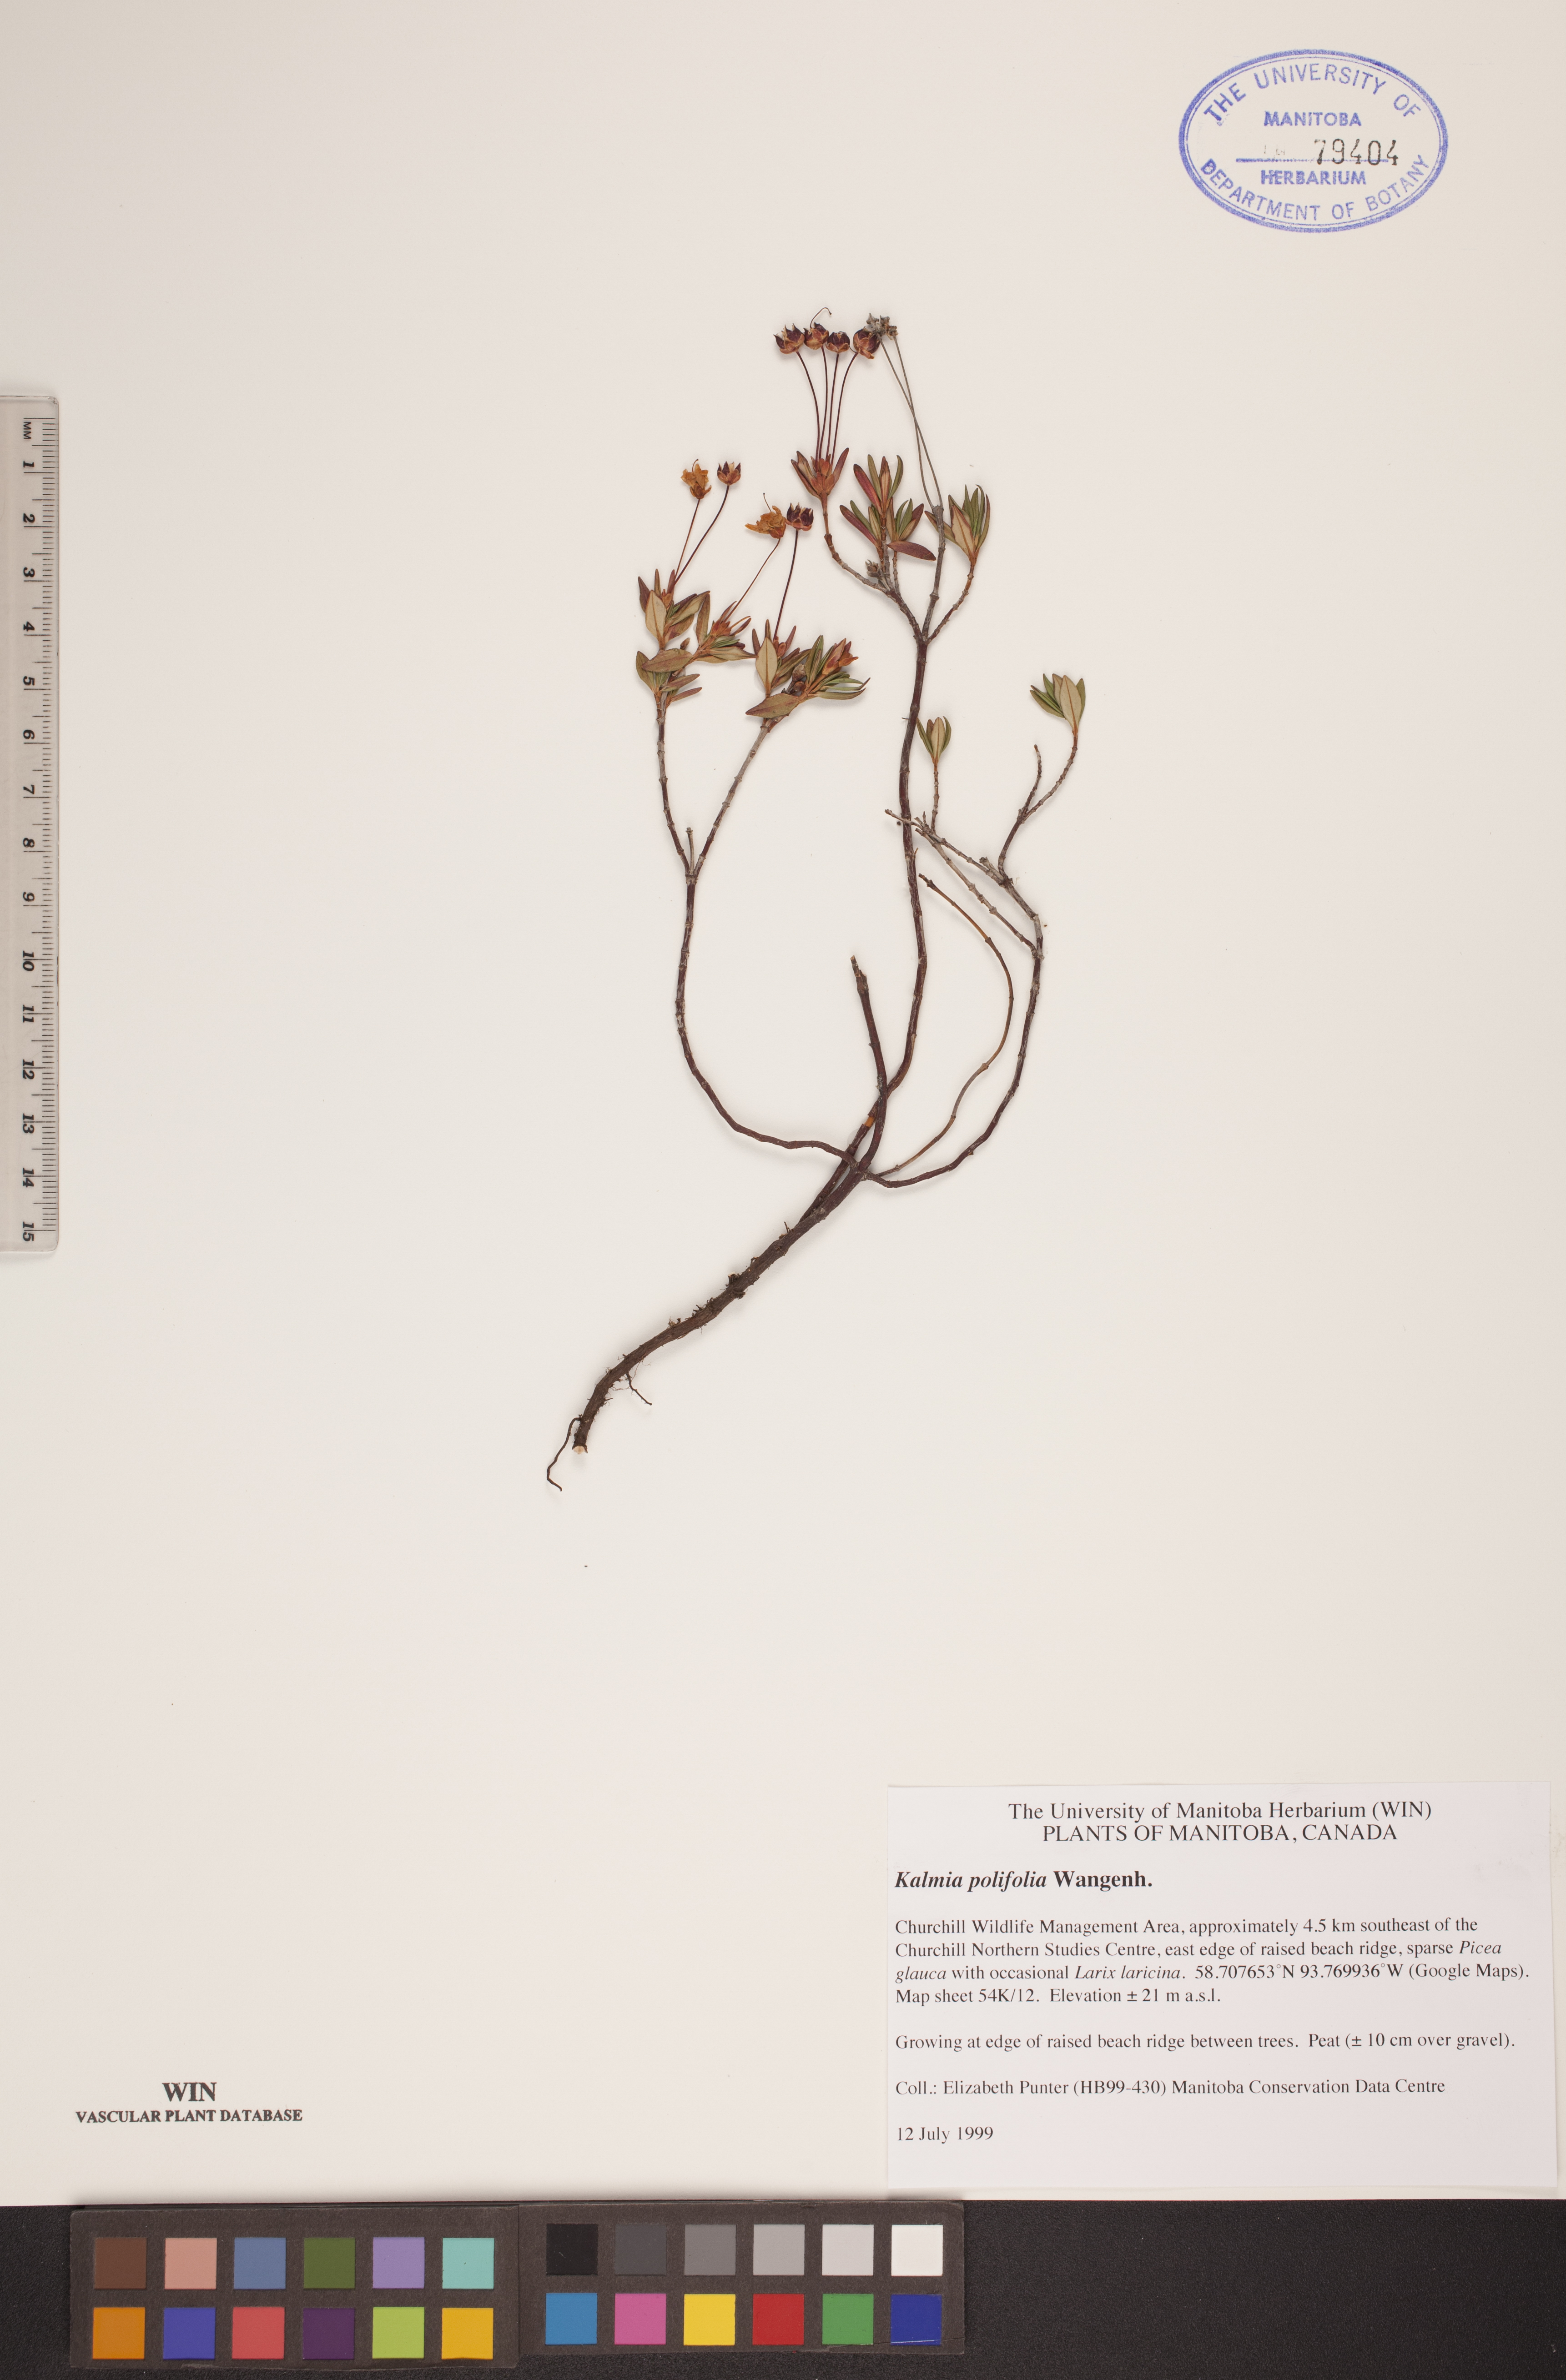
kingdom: Plantae
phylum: Tracheophyta
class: Magnoliopsida
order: Ericales
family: Ericaceae
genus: Kalmia
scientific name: Kalmia polifolia
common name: Bog-laurel
